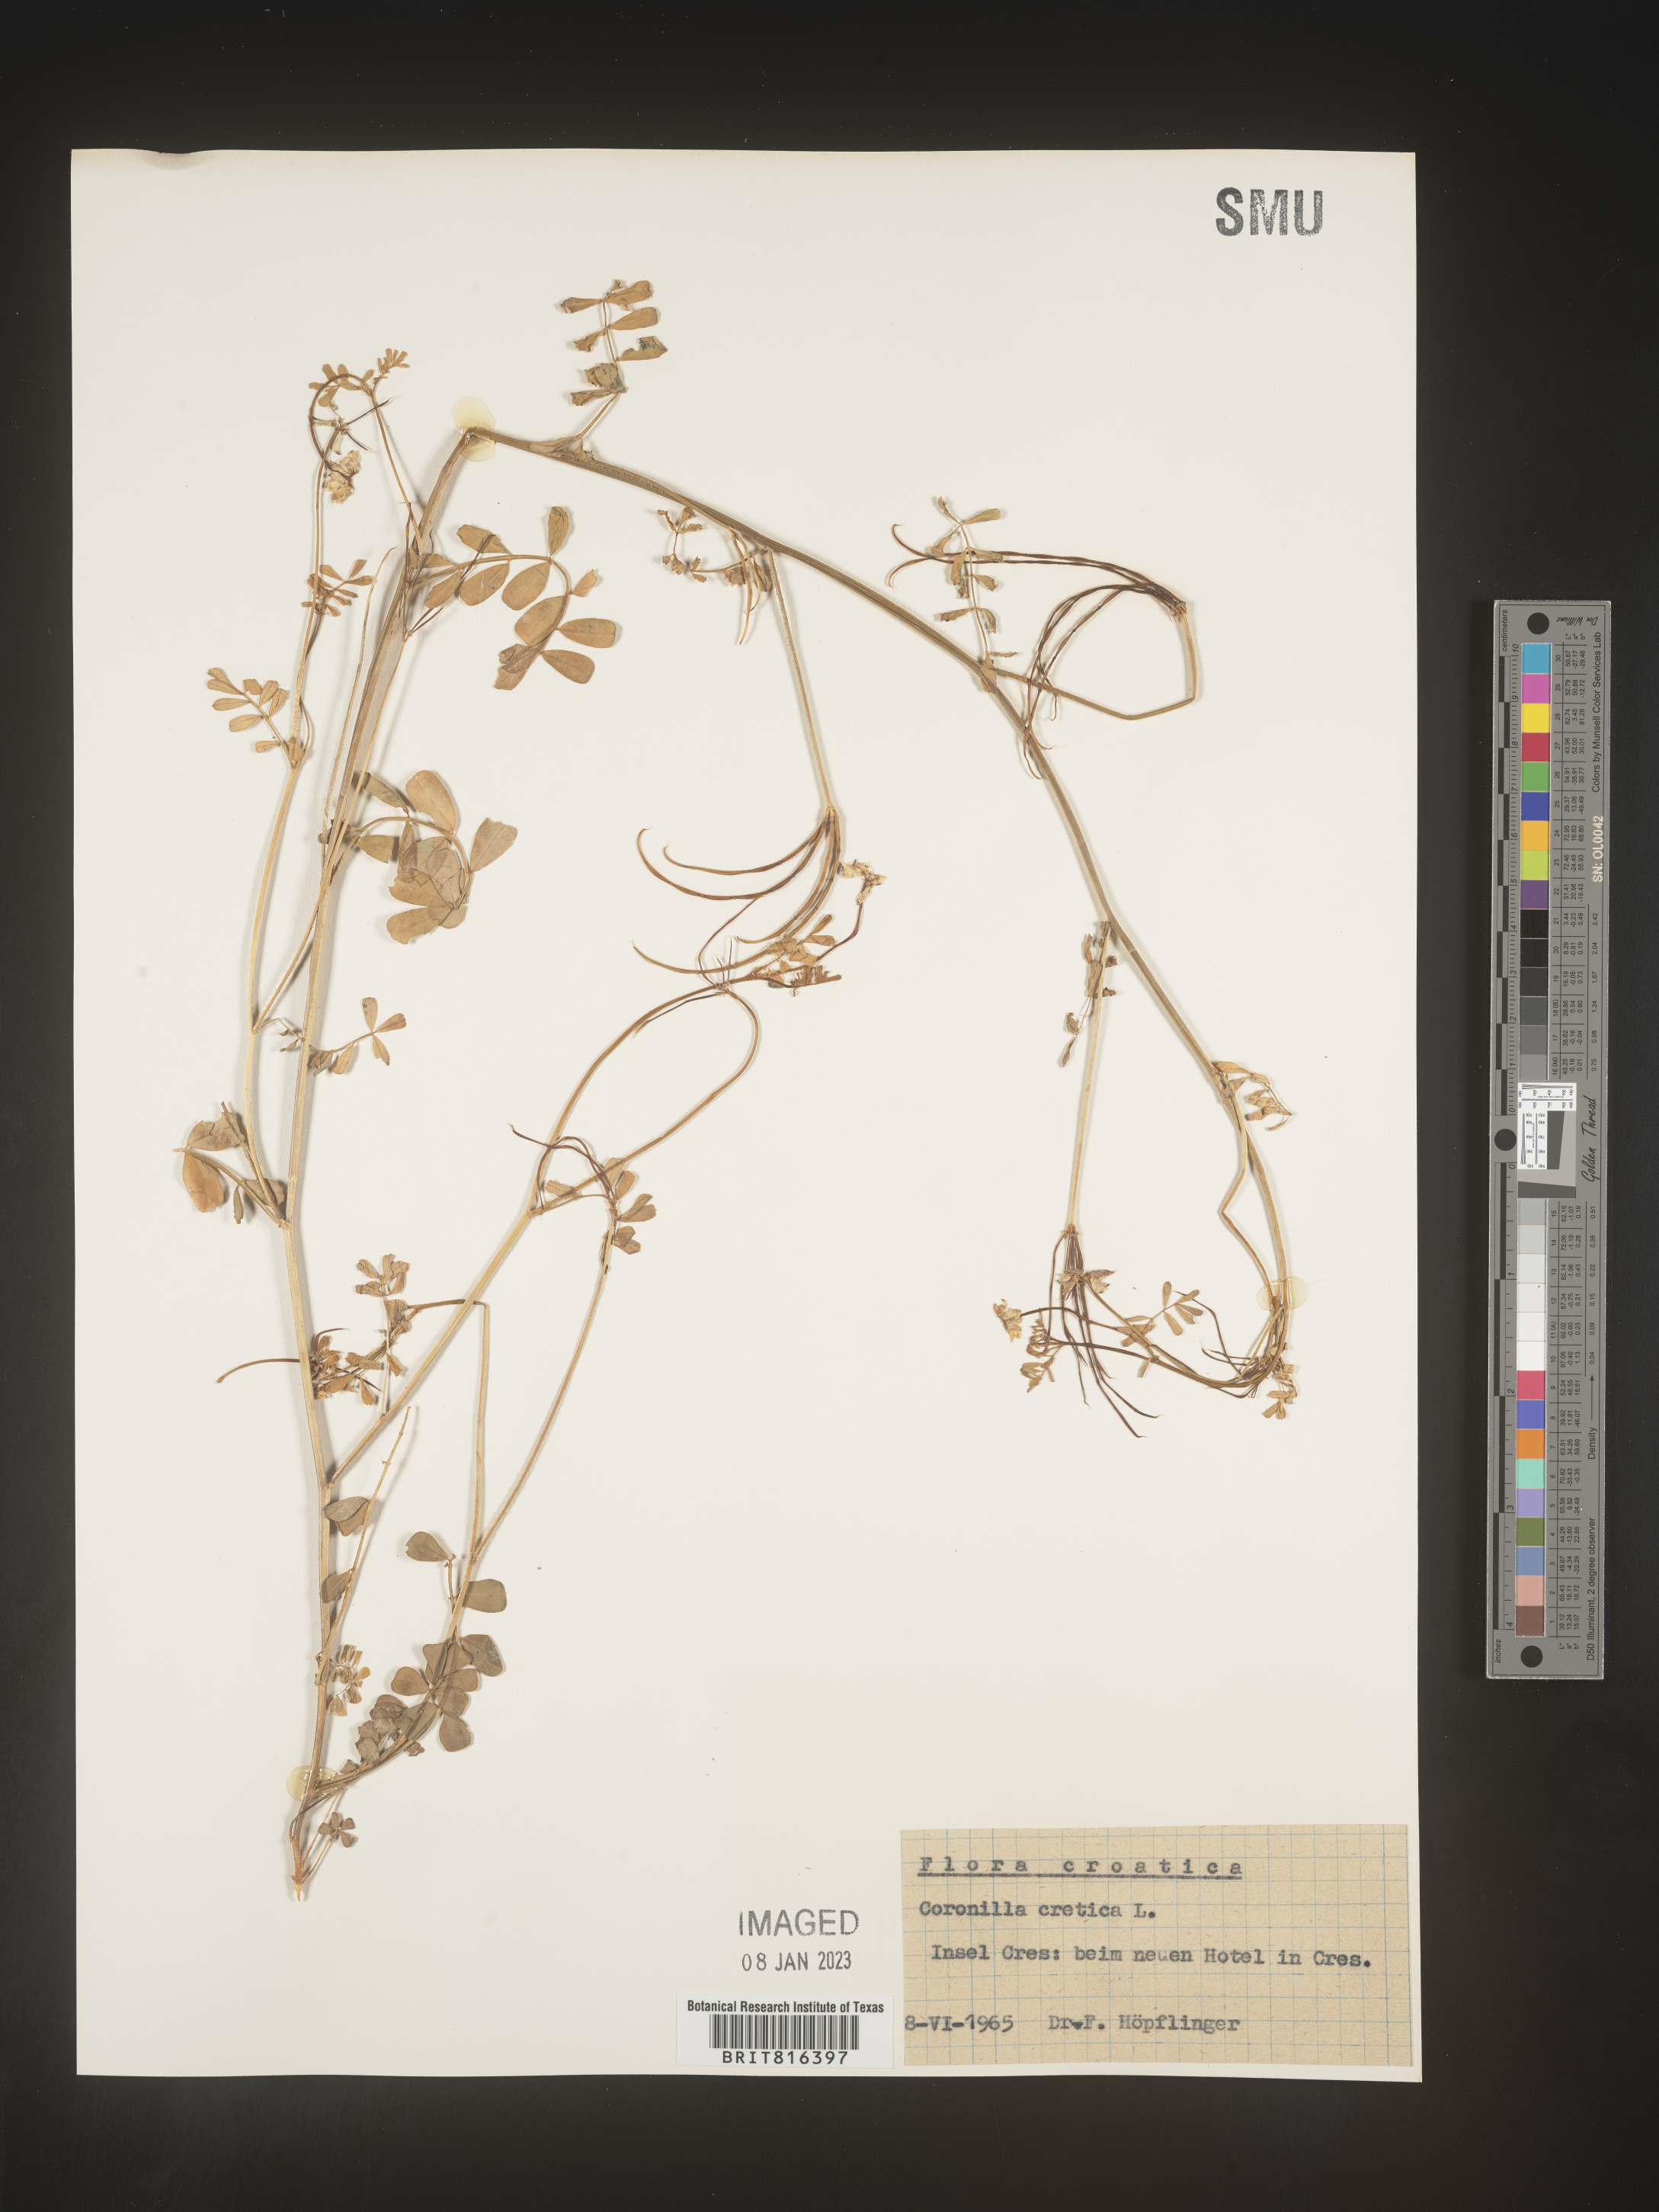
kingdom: Plantae
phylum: Tracheophyta
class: Magnoliopsida
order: Fabales
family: Fabaceae
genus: Coronilla
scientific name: Coronilla
